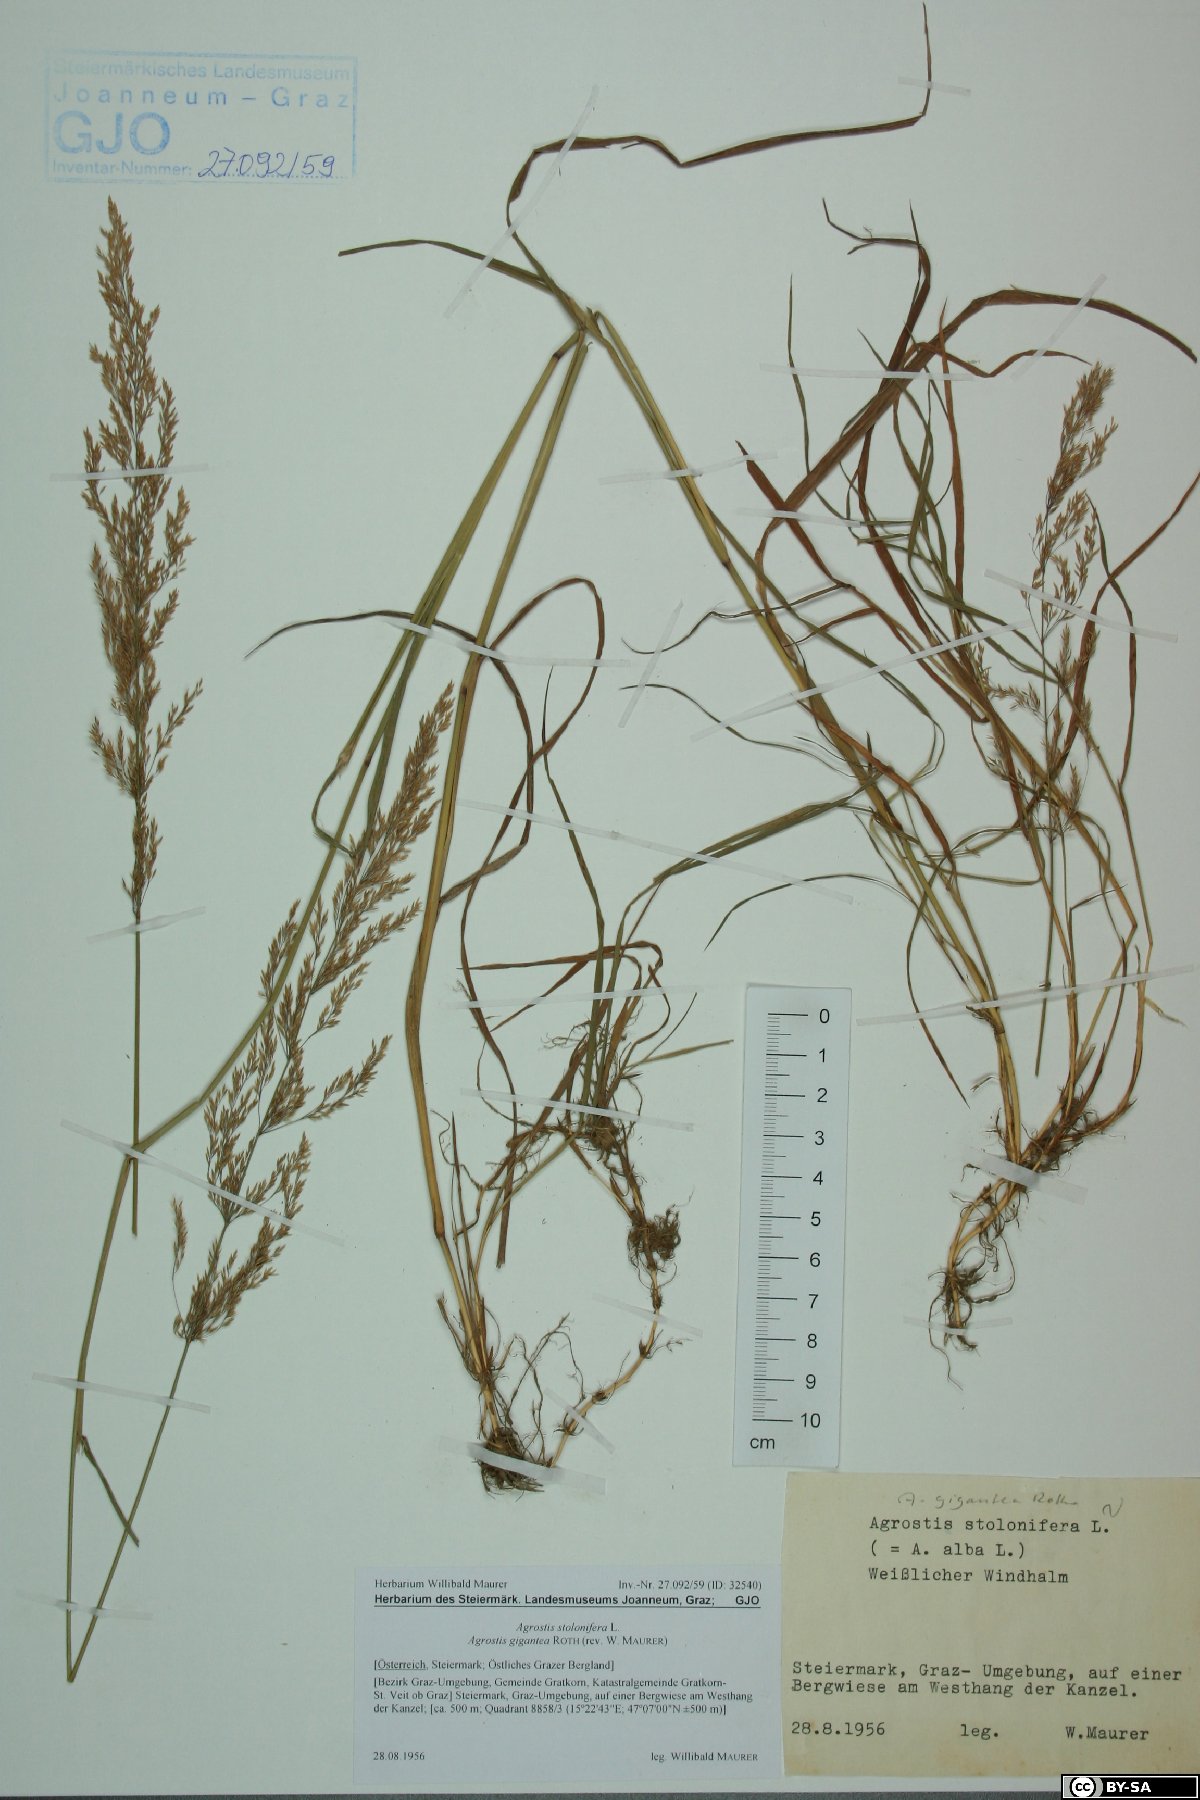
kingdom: Plantae
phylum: Tracheophyta
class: Liliopsida
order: Poales
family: Poaceae
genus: Agrostis
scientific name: Agrostis gigantea
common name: Black bent
